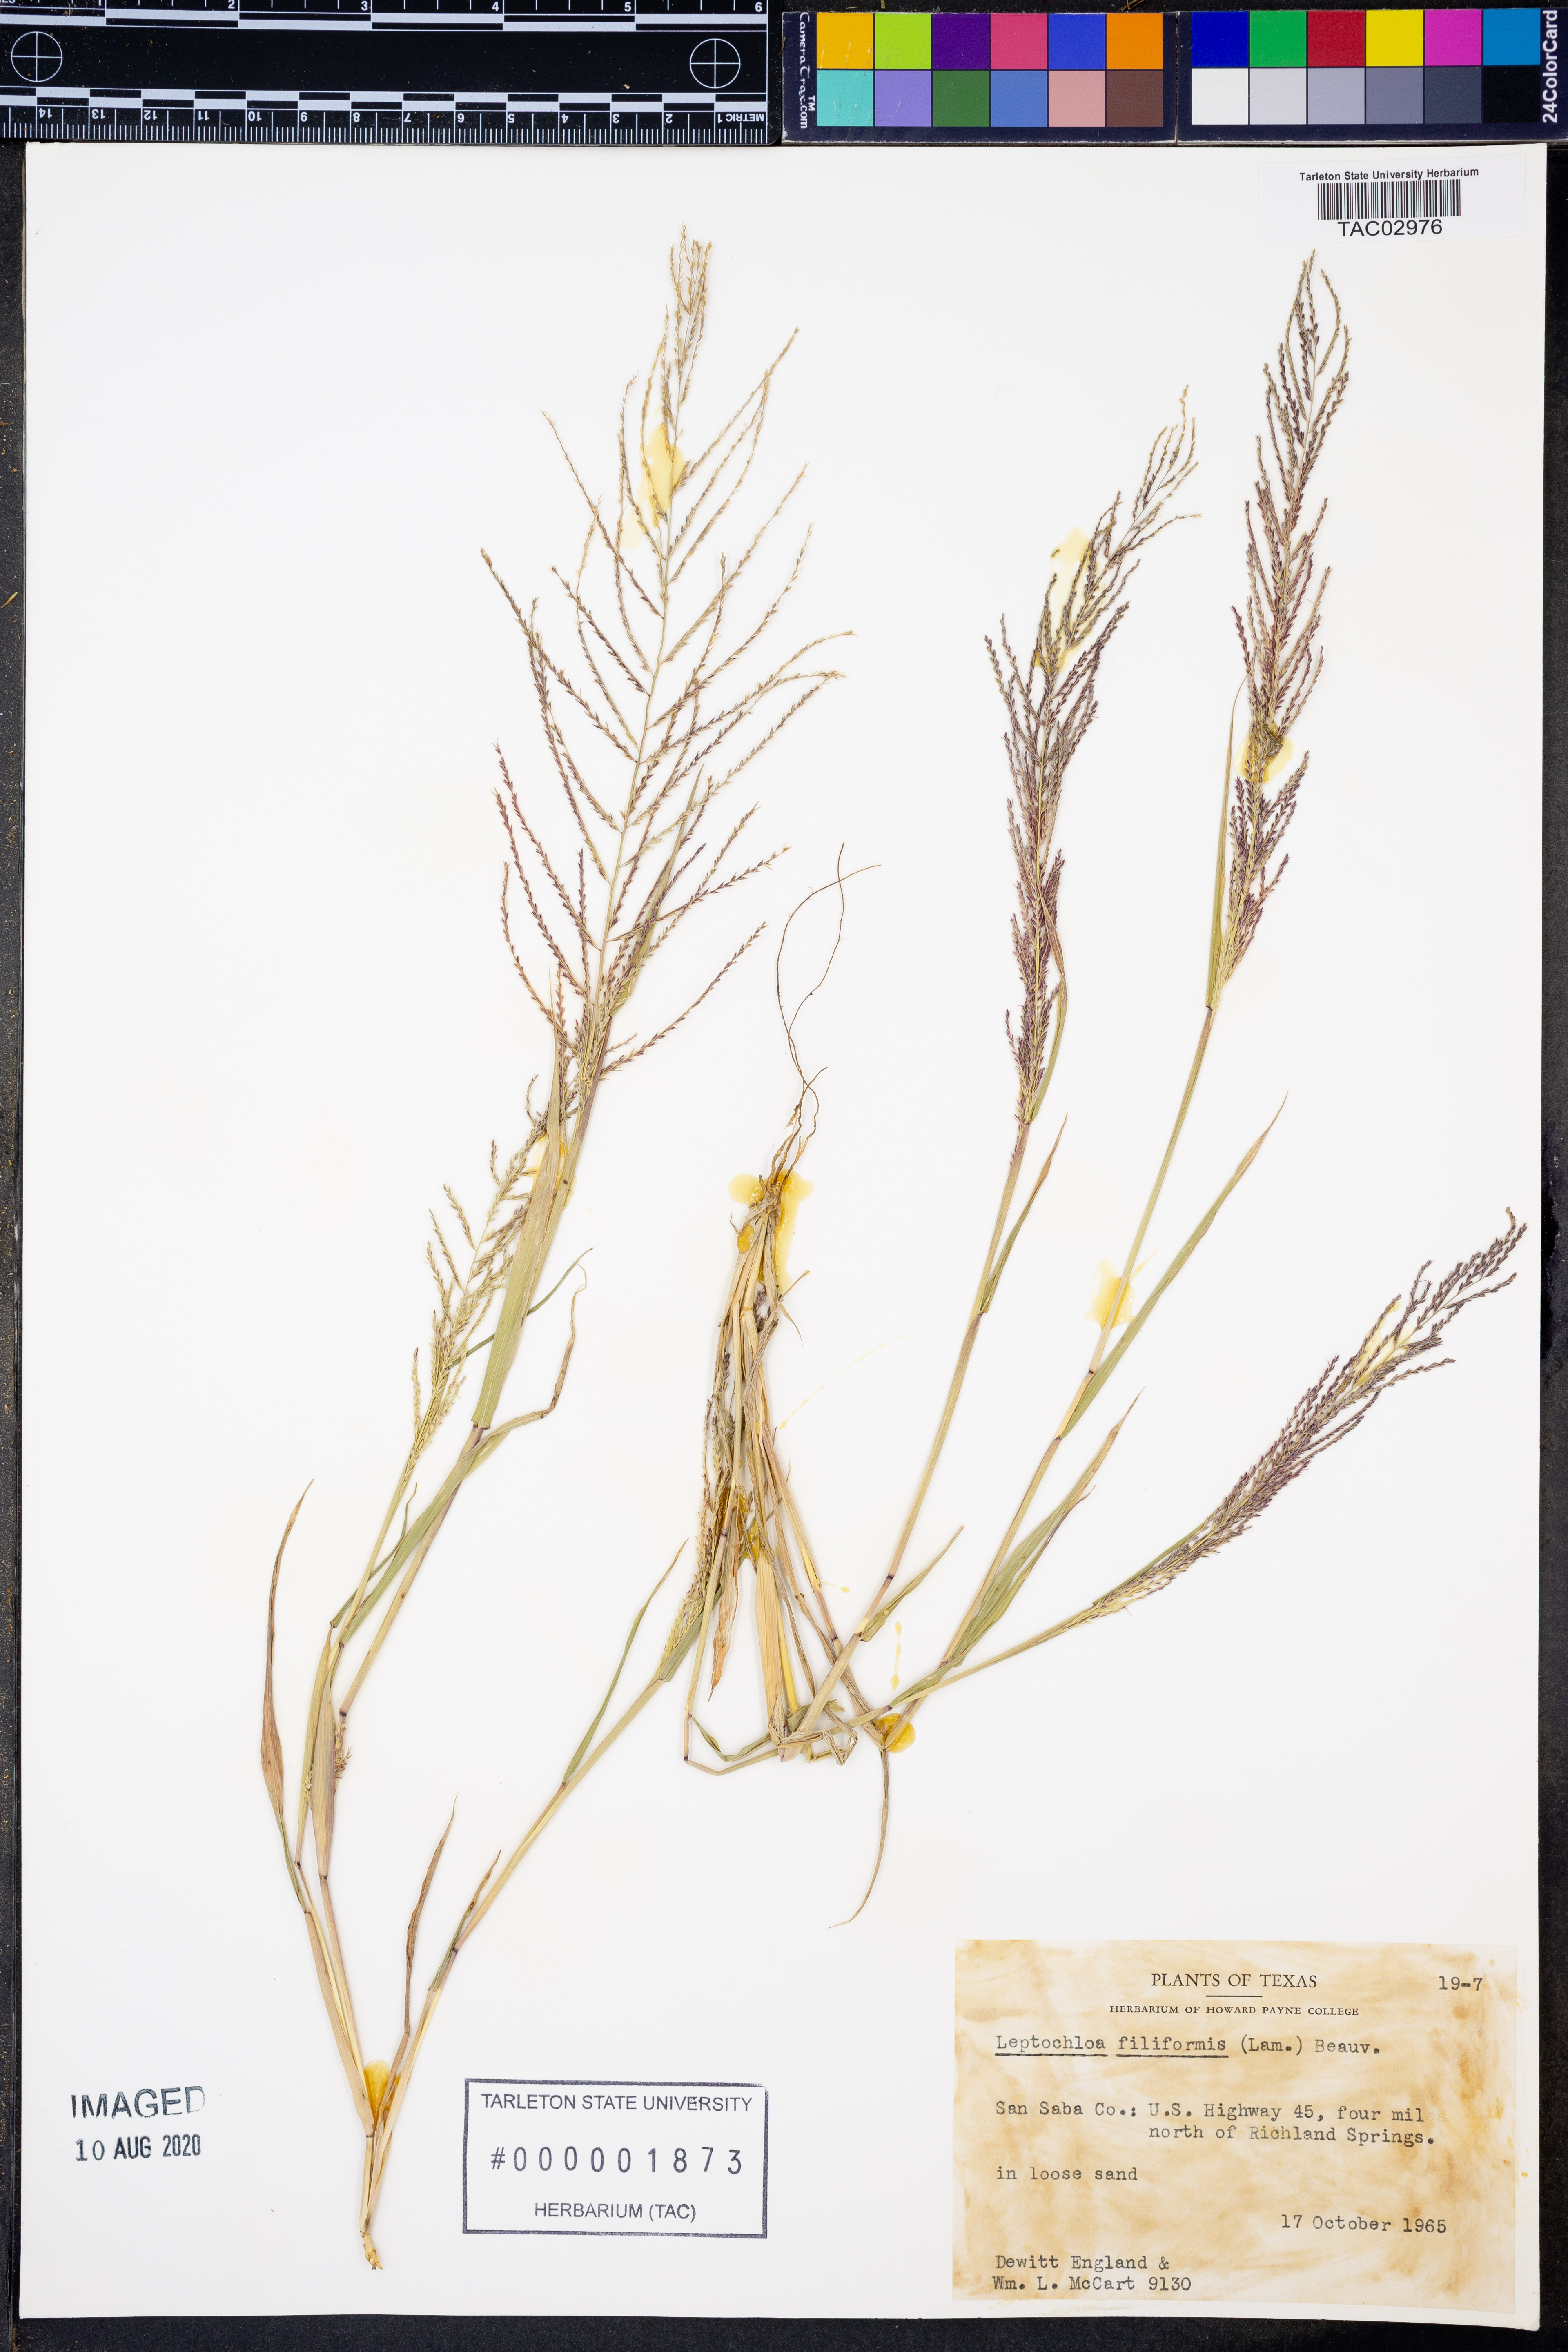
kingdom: Plantae
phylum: Tracheophyta
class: Liliopsida
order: Poales
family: Poaceae
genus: Leptochloa
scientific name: Leptochloa mucronata
